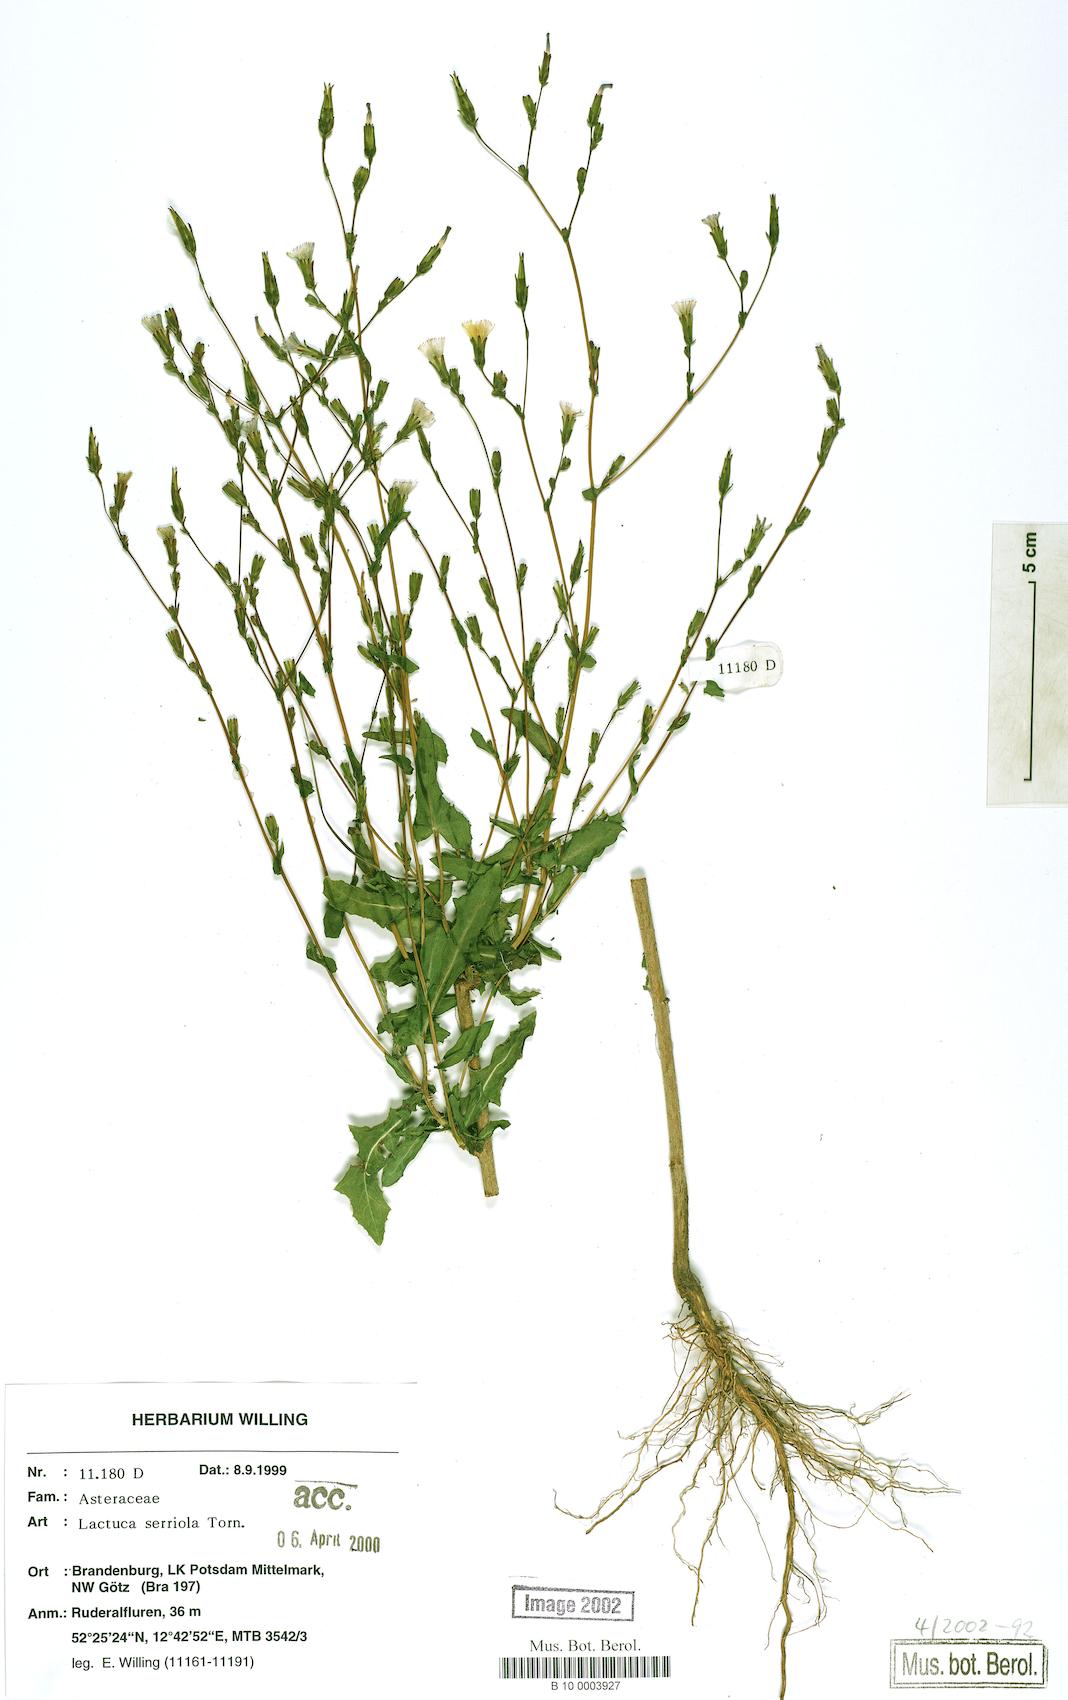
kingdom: Plantae
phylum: Tracheophyta
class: Magnoliopsida
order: Asterales
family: Asteraceae
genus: Lactuca
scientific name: Lactuca serriola
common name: Prickly lettuce
